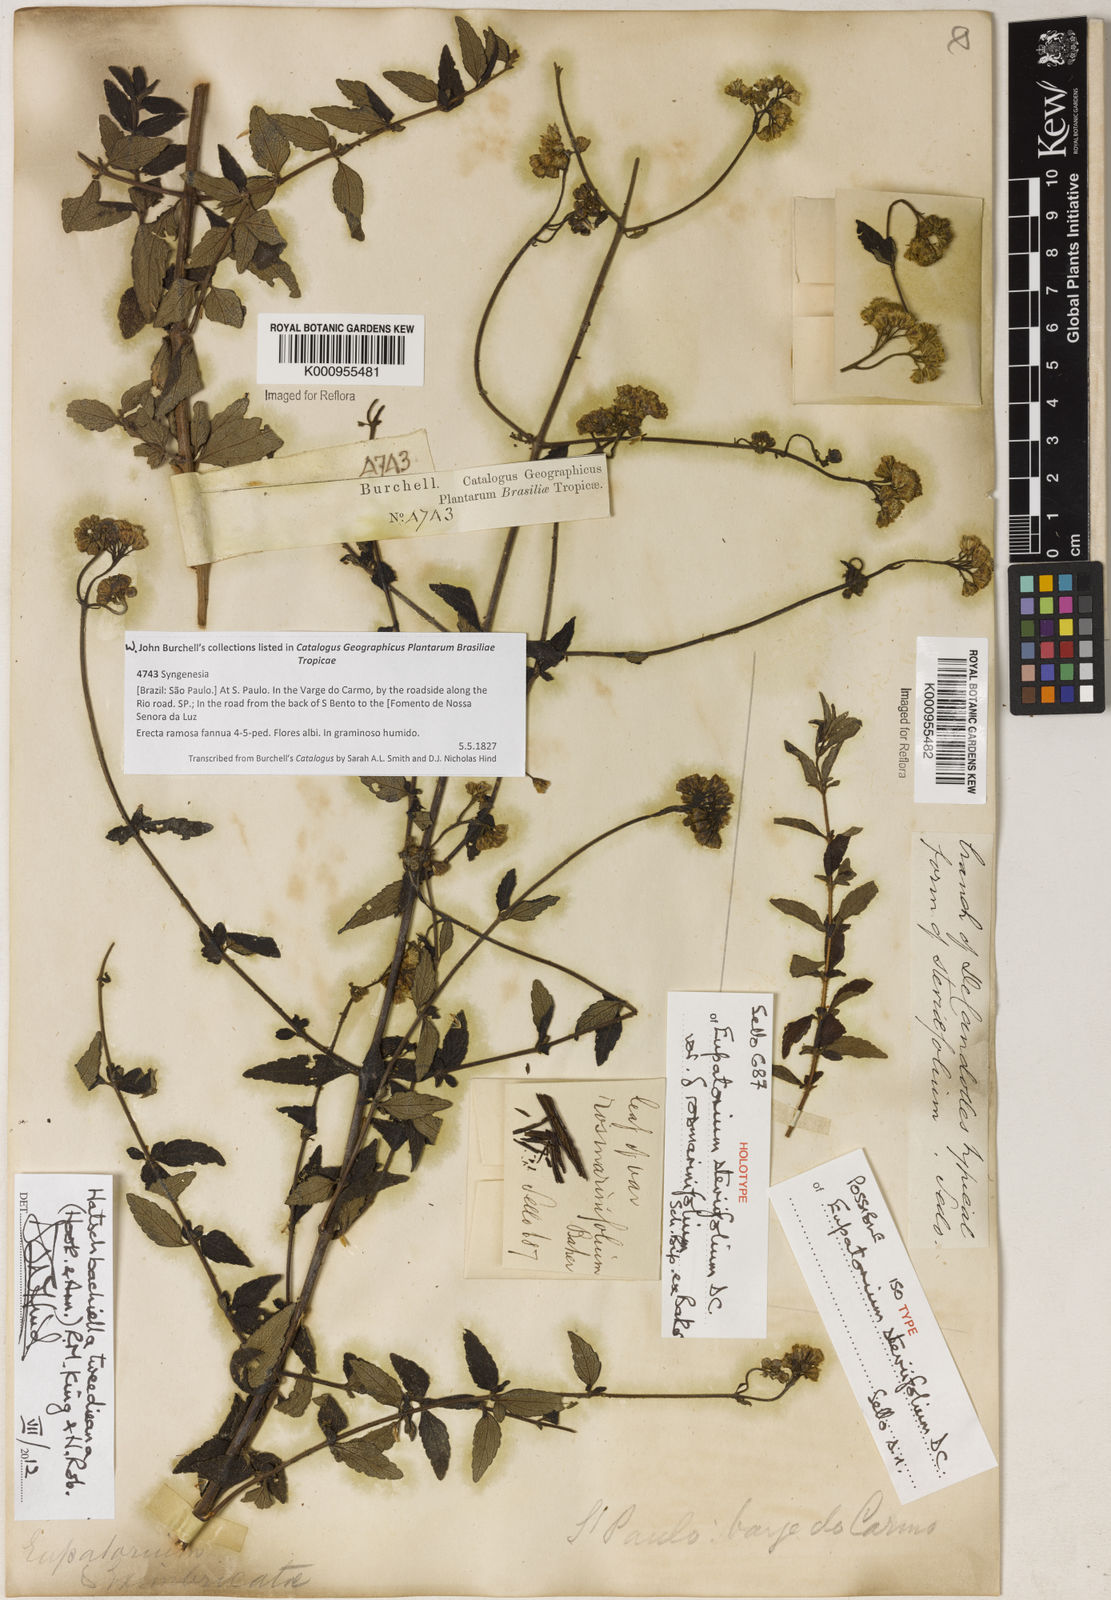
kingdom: Plantae
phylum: Tracheophyta
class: Magnoliopsida
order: Asterales
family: Asteraceae
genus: Hatschbachiella
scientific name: Hatschbachiella tweedieana
